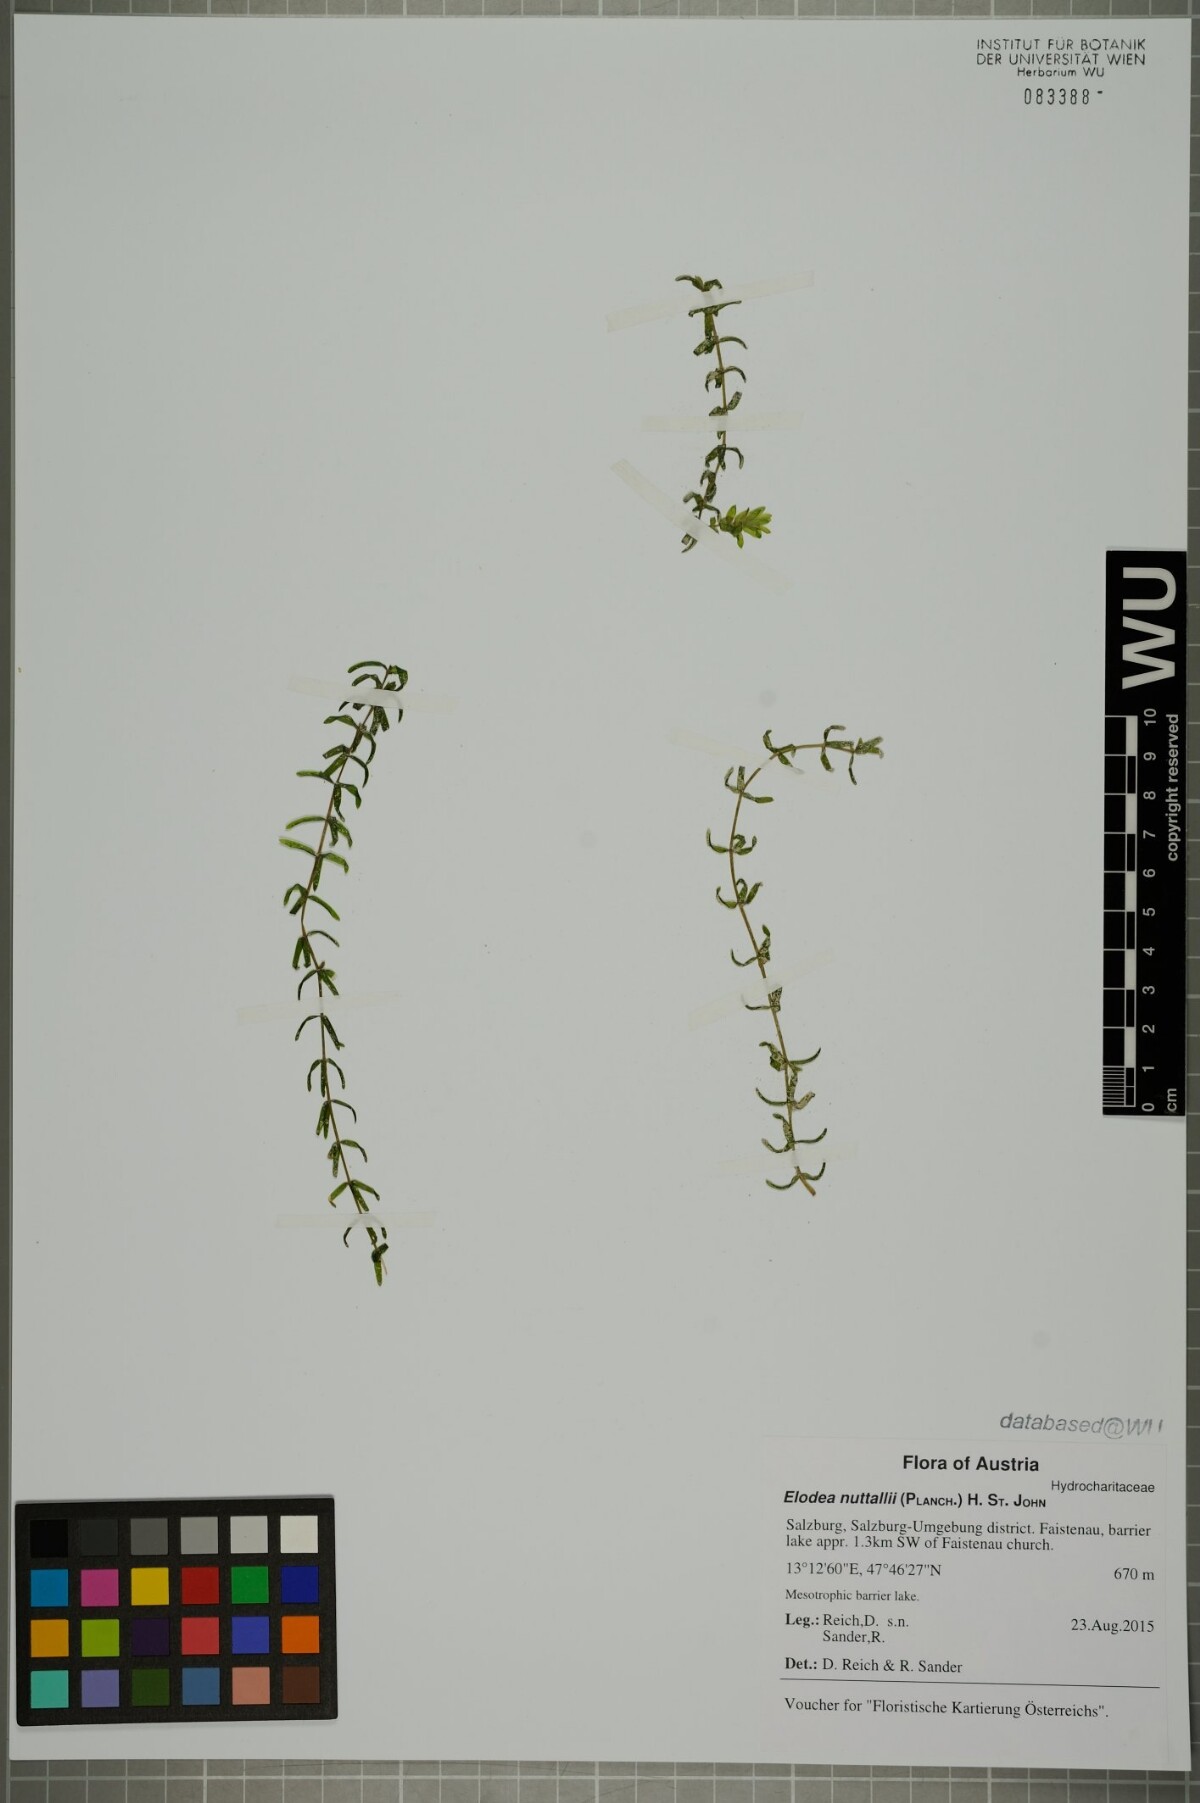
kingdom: Plantae
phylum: Tracheophyta
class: Liliopsida
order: Alismatales
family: Hydrocharitaceae
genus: Elodea
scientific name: Elodea nuttallii
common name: Nuttall's waterweed
